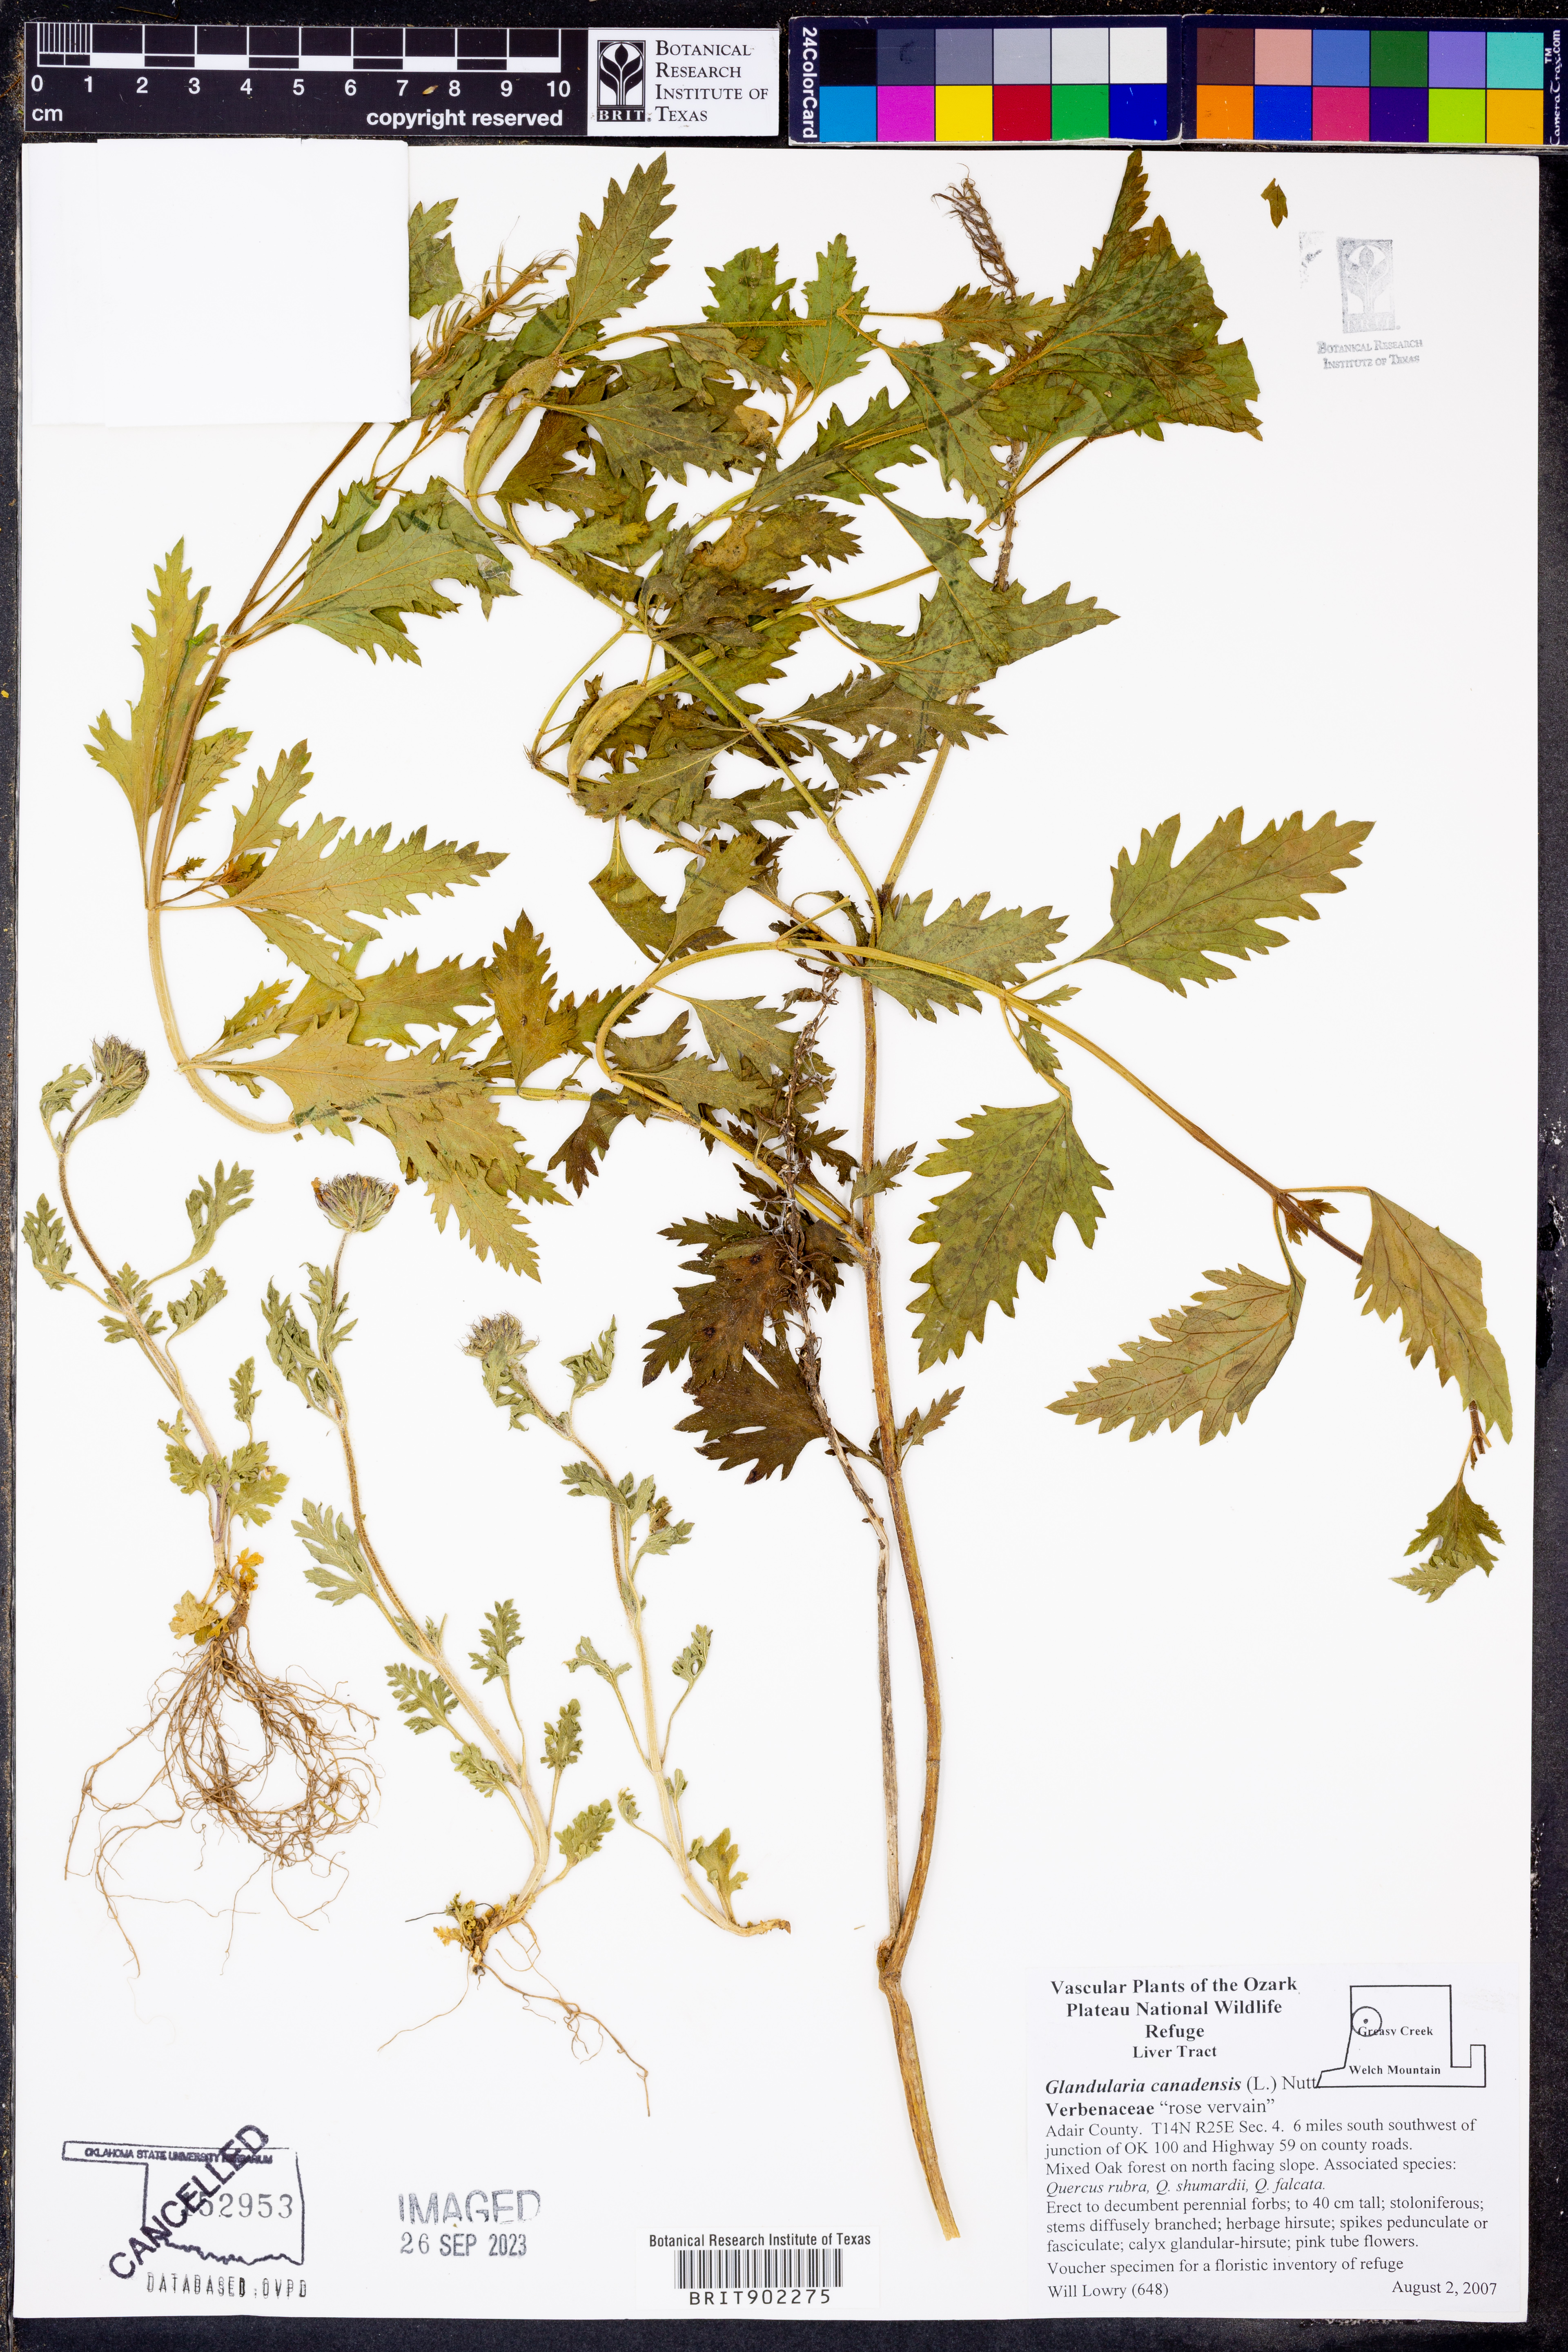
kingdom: Plantae
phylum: Tracheophyta
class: Magnoliopsida
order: Lamiales
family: Verbenaceae
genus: Verbena
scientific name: Verbena canadensis
